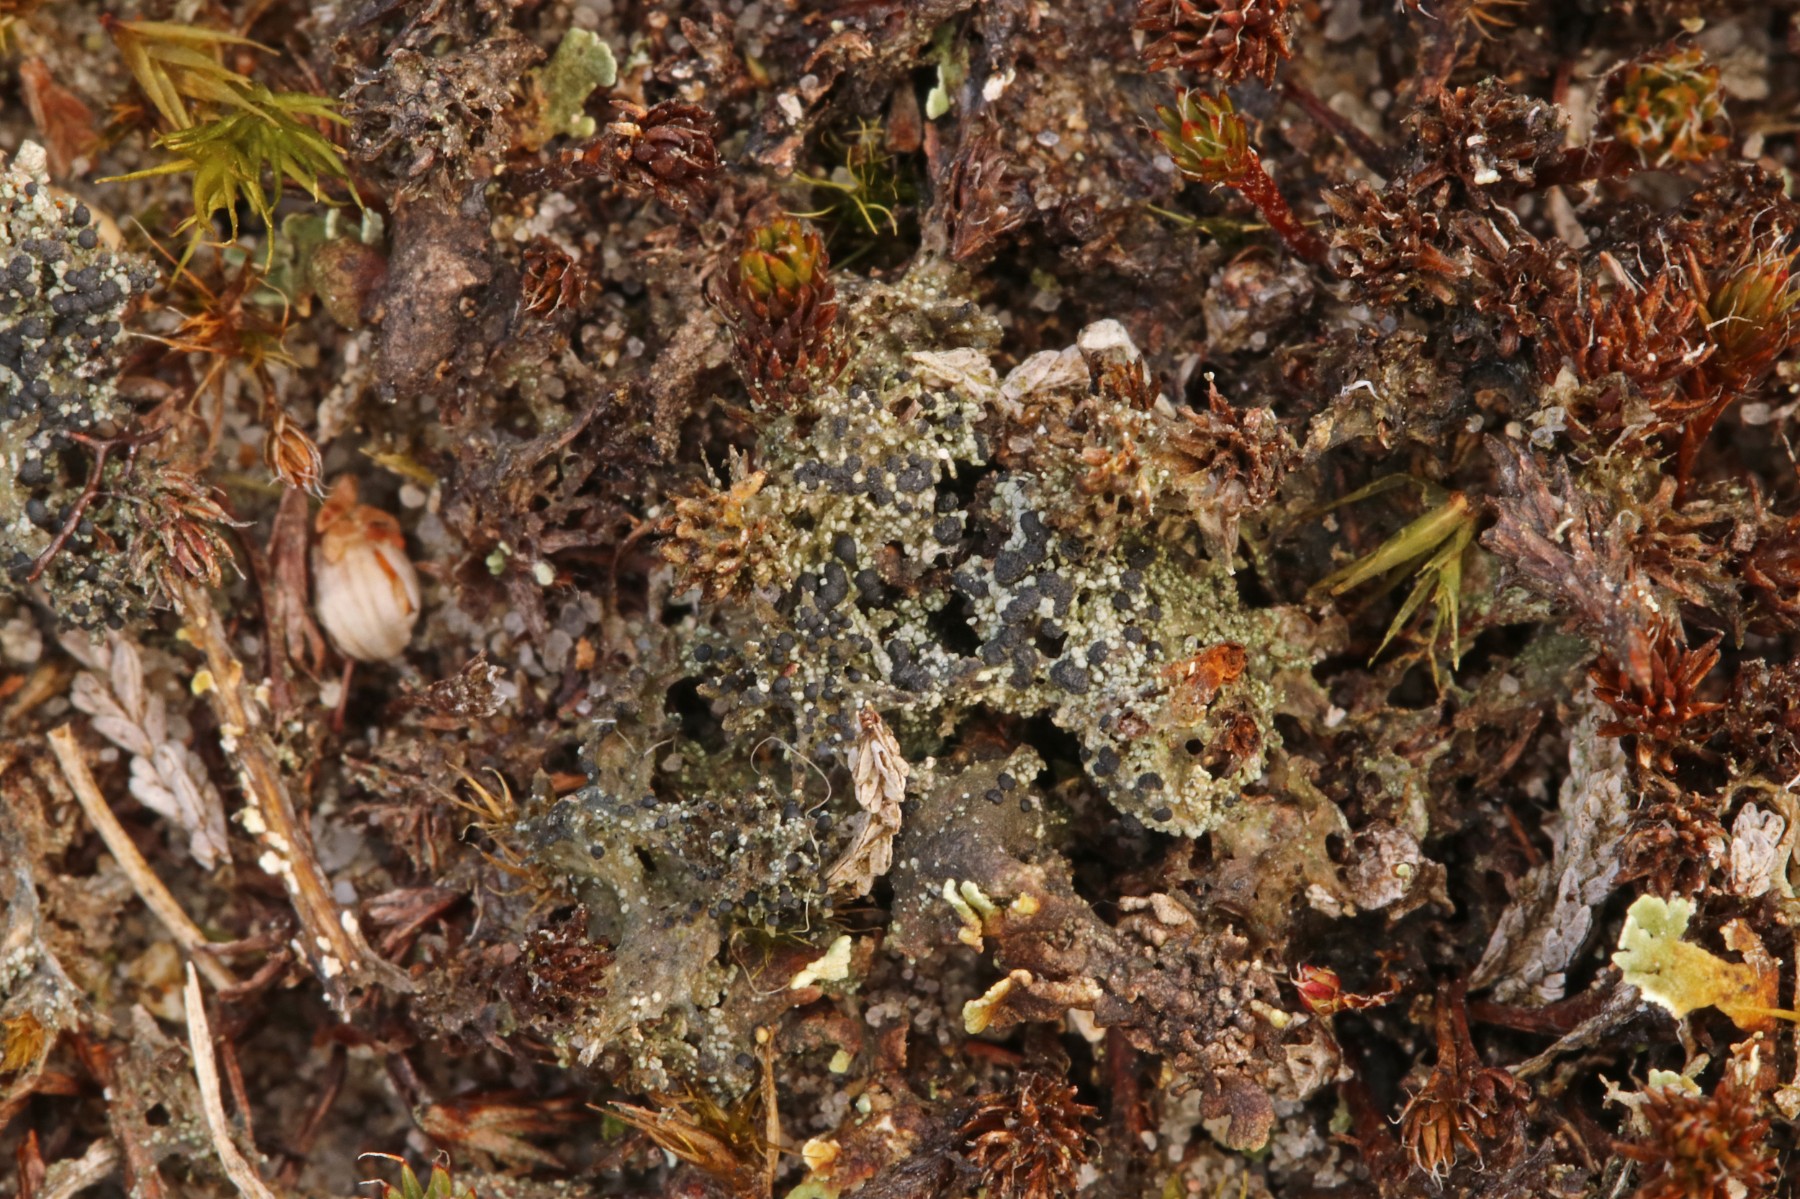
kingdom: Fungi
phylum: Ascomycota
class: Lecanoromycetes
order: Lecanorales
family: Byssolomataceae
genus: Micarea
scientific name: Micarea lignaria
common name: tørve-knaplav
